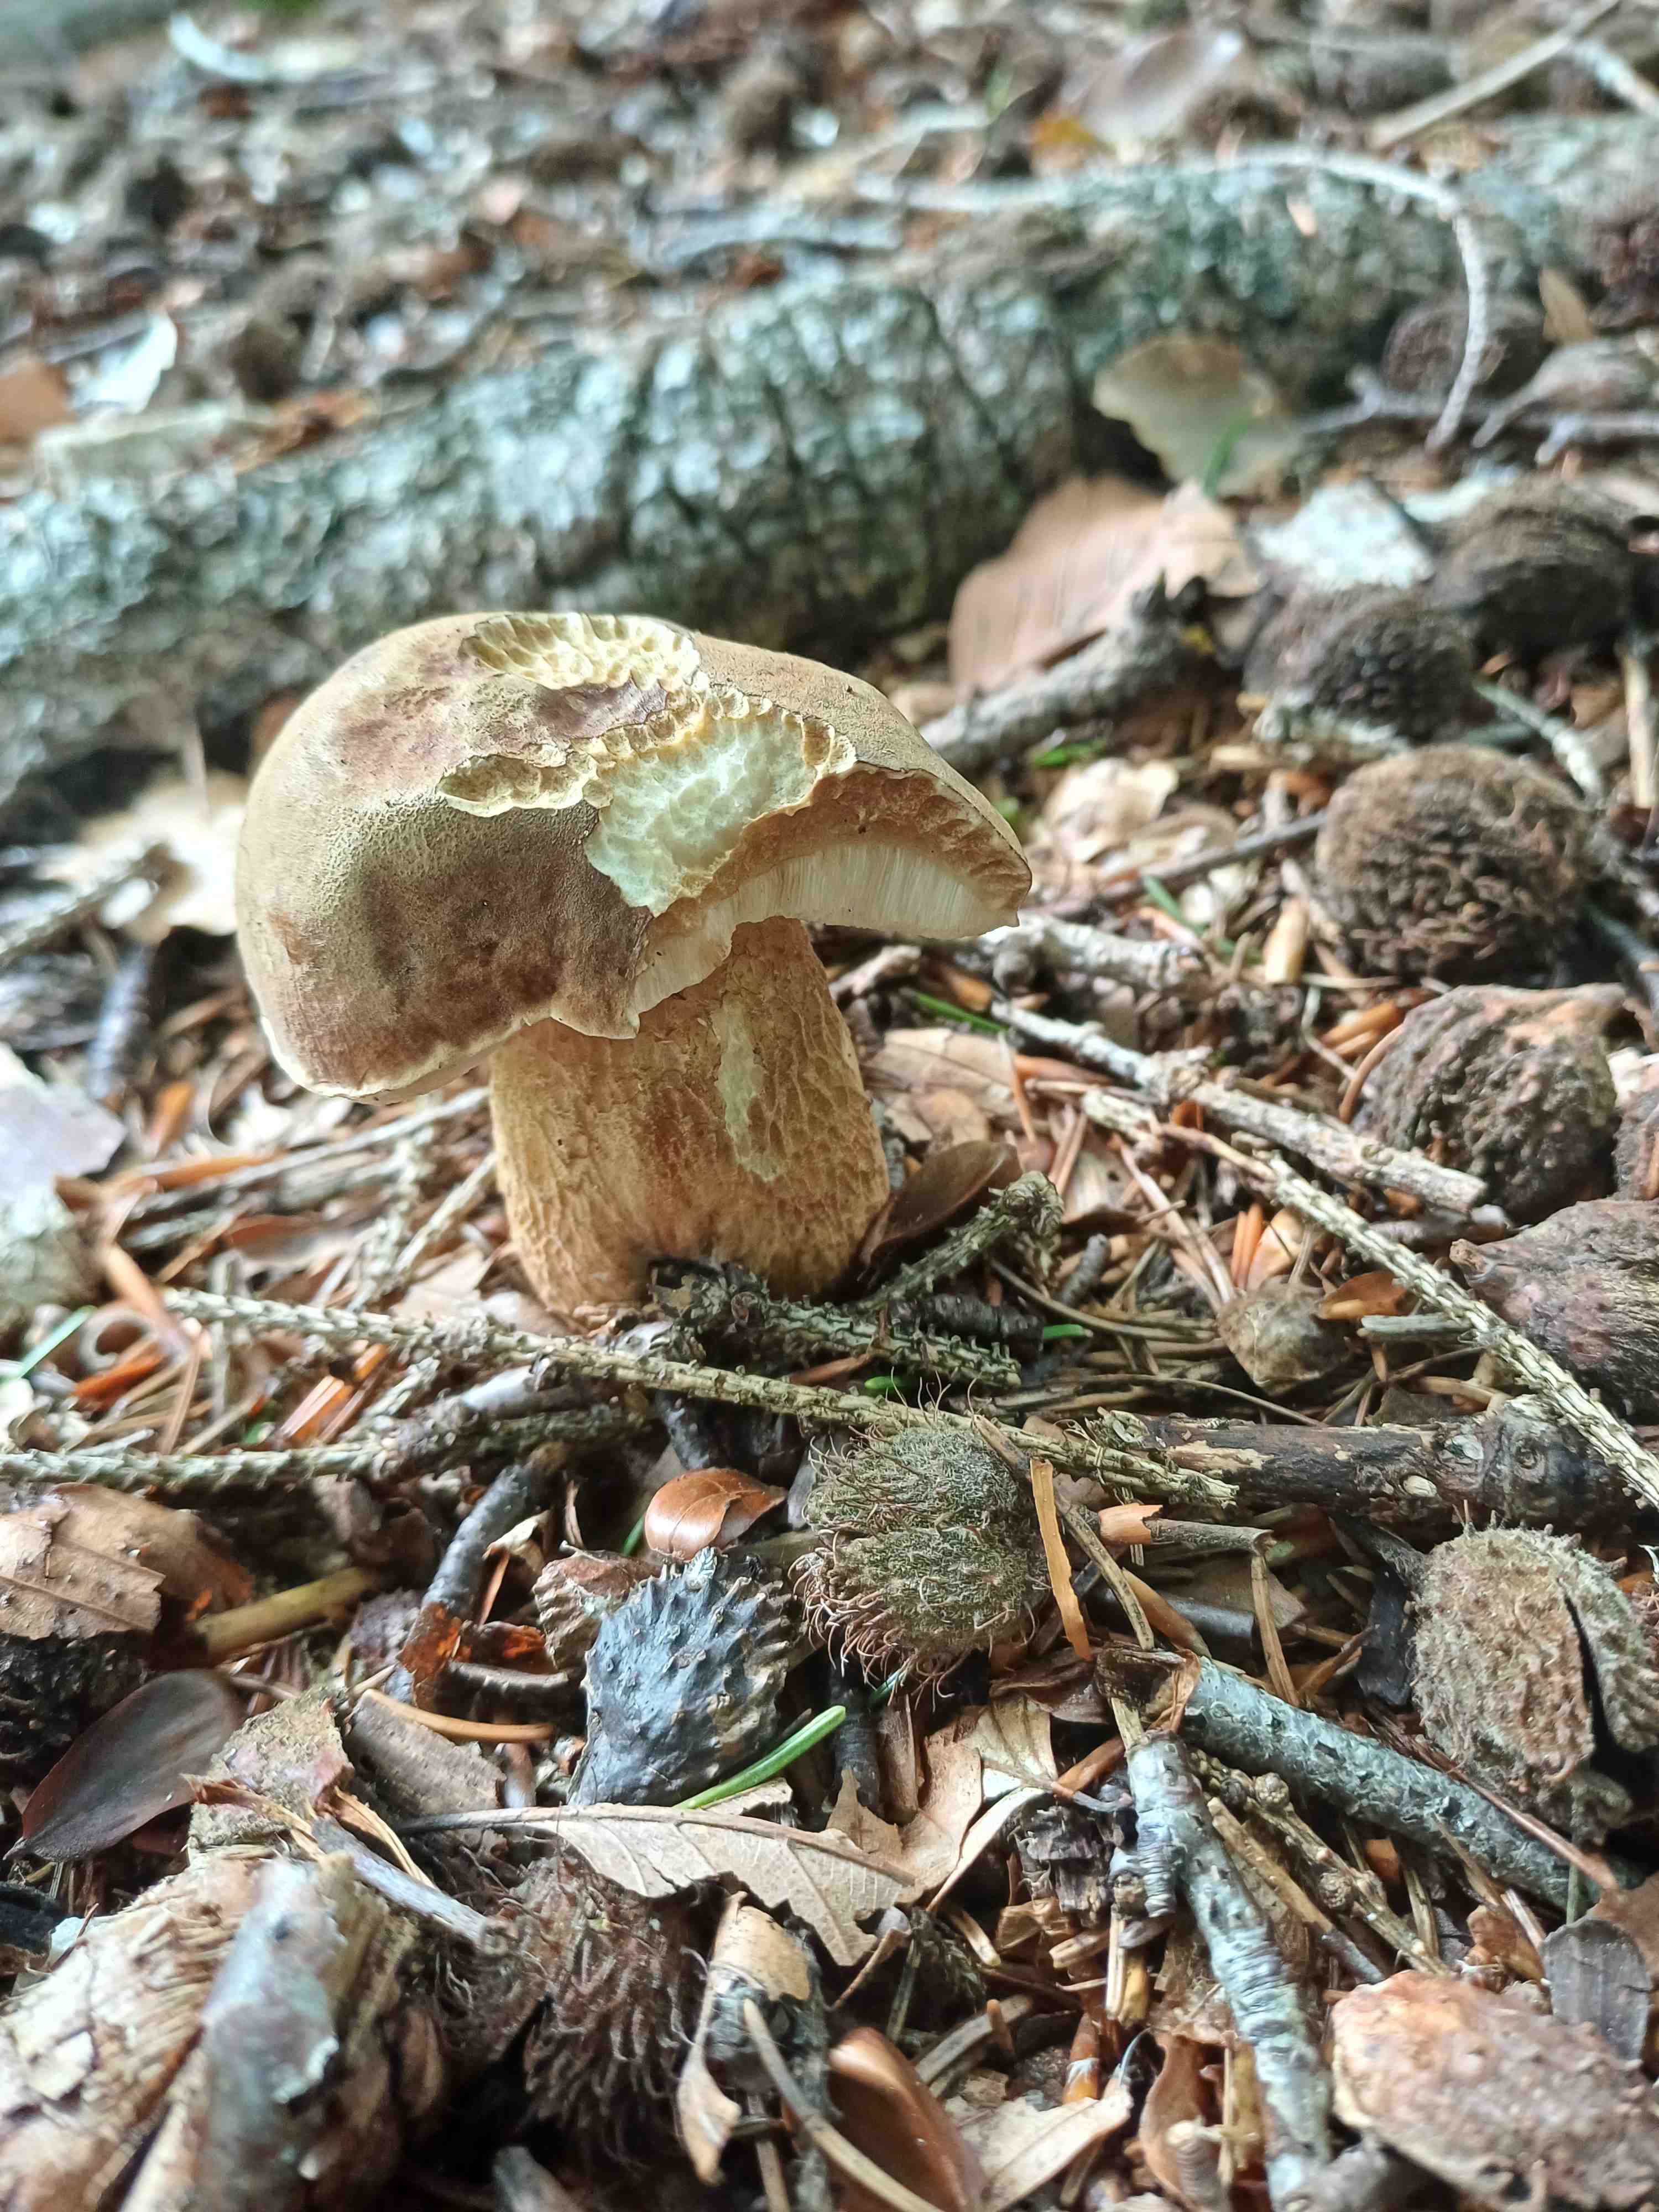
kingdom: Fungi
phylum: Basidiomycota
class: Agaricomycetes
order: Boletales
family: Boletaceae
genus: Tylopilus
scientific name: Tylopilus felleus
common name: galderørhat
